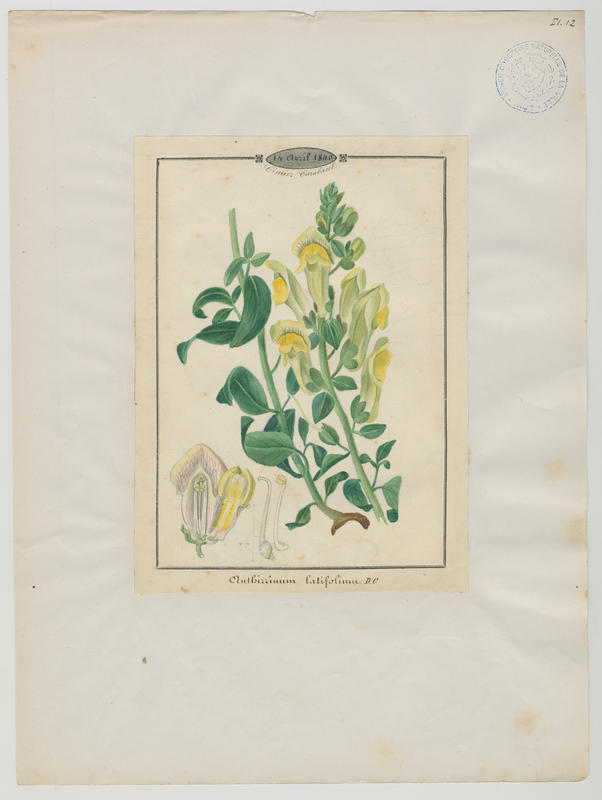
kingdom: Plantae
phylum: Tracheophyta
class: Magnoliopsida
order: Lamiales
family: Plantaginaceae
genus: Antirrhinum
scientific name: Antirrhinum latifolium
